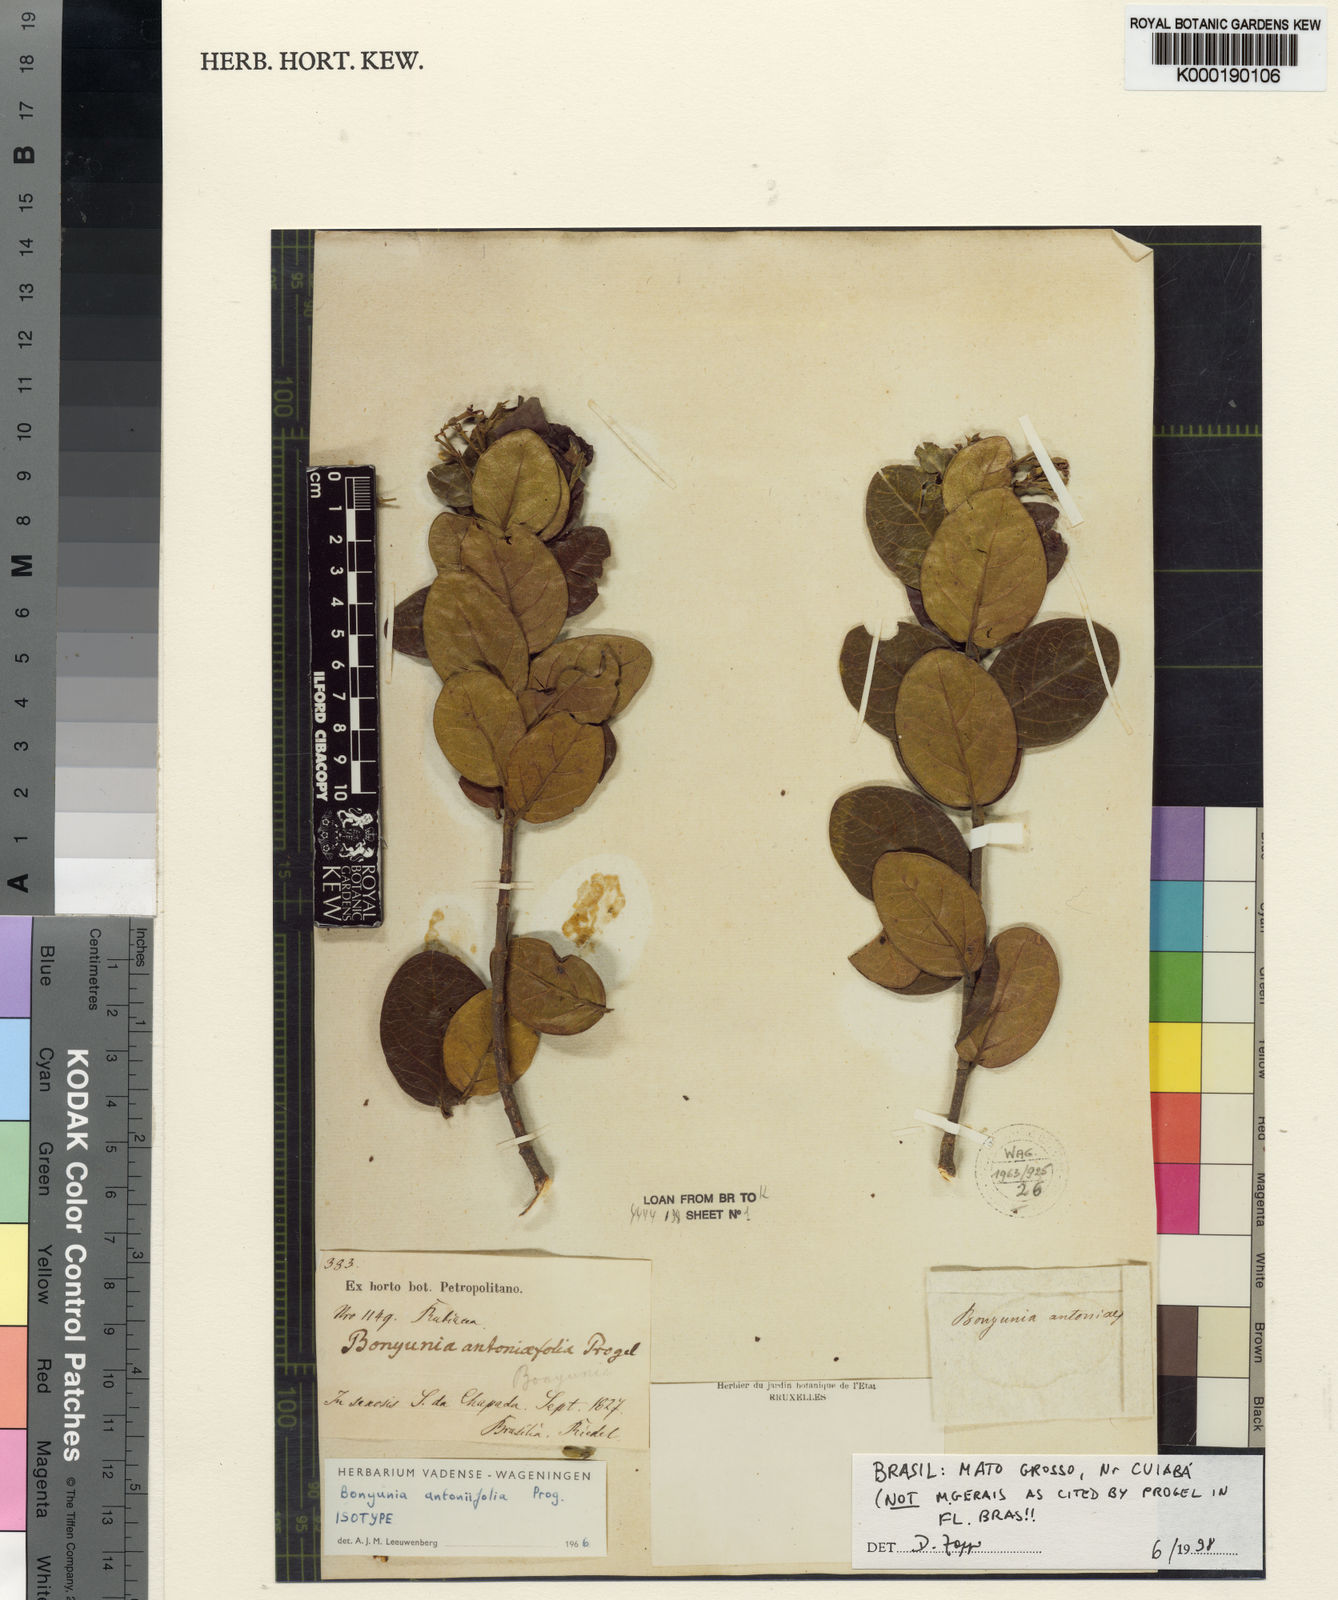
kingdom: Plantae
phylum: Tracheophyta
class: Magnoliopsida
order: Gentianales
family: Loganiaceae
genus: Bonyunia
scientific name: Bonyunia
